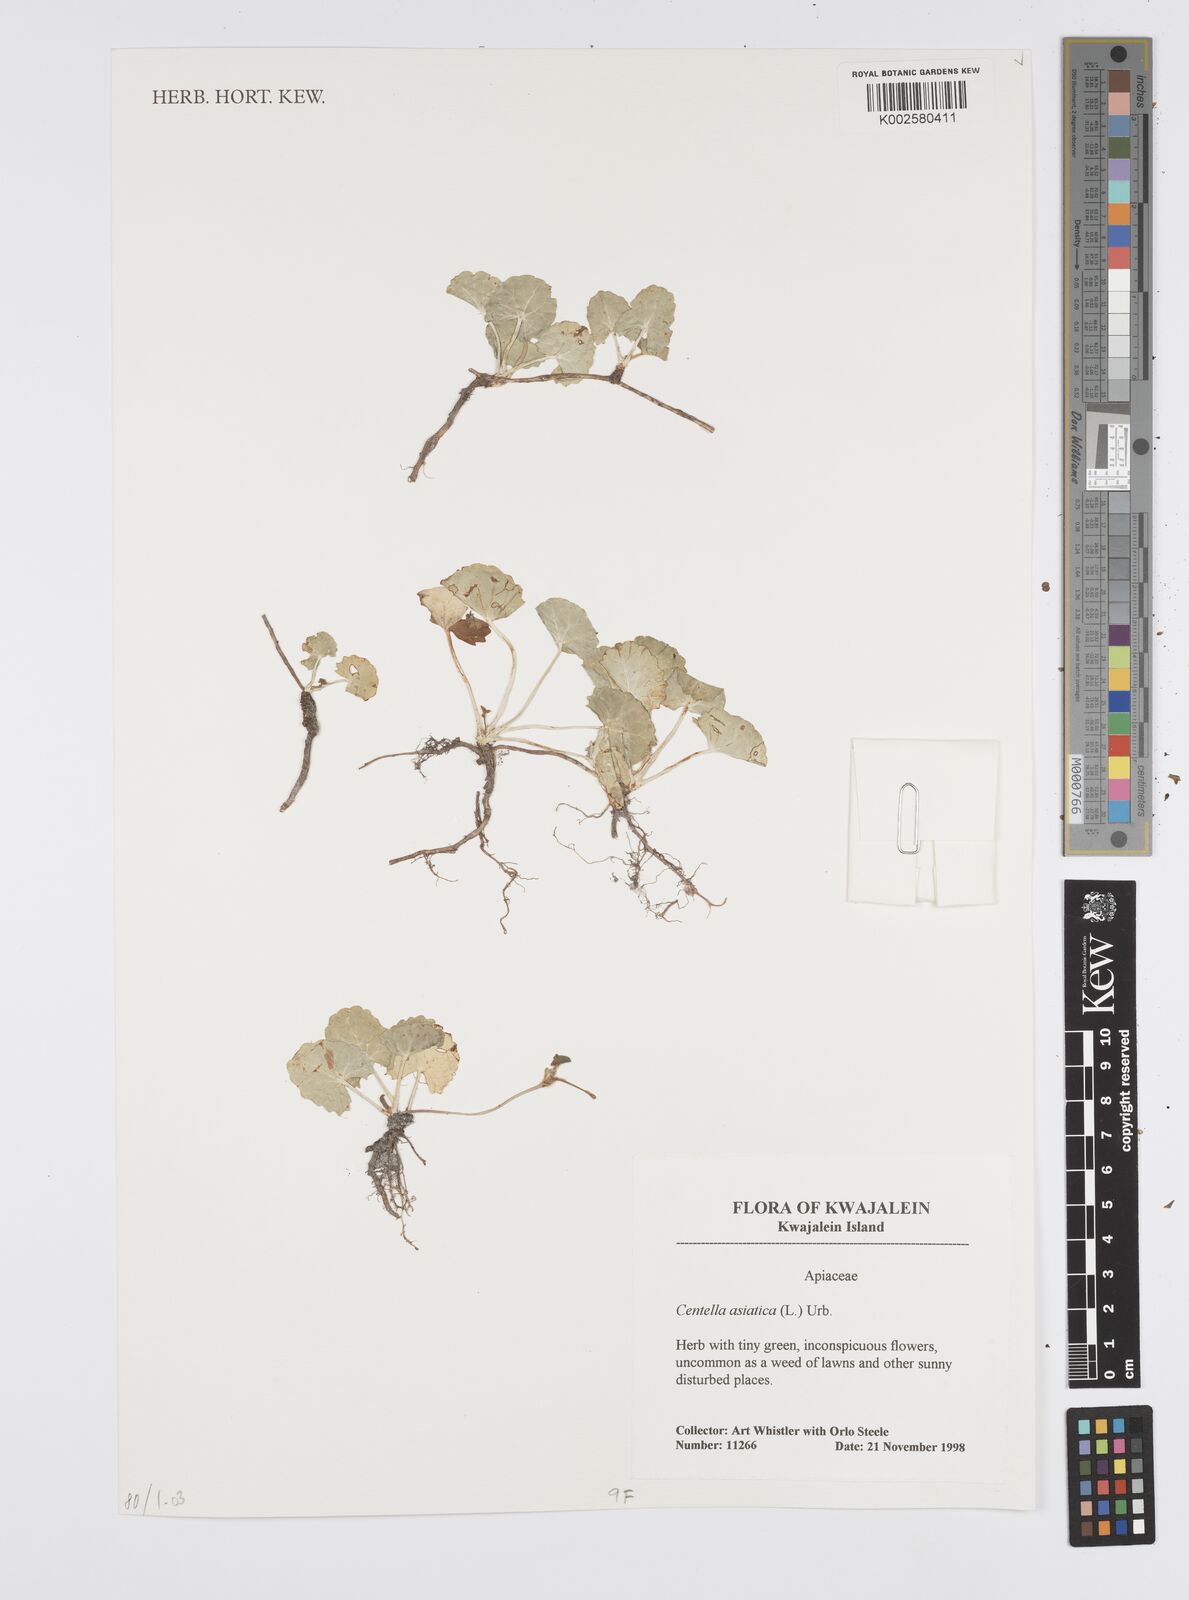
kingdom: Plantae
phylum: Tracheophyta
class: Magnoliopsida
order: Apiales
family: Apiaceae
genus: Centella
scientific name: Centella asiatica
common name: Spadeleaf
